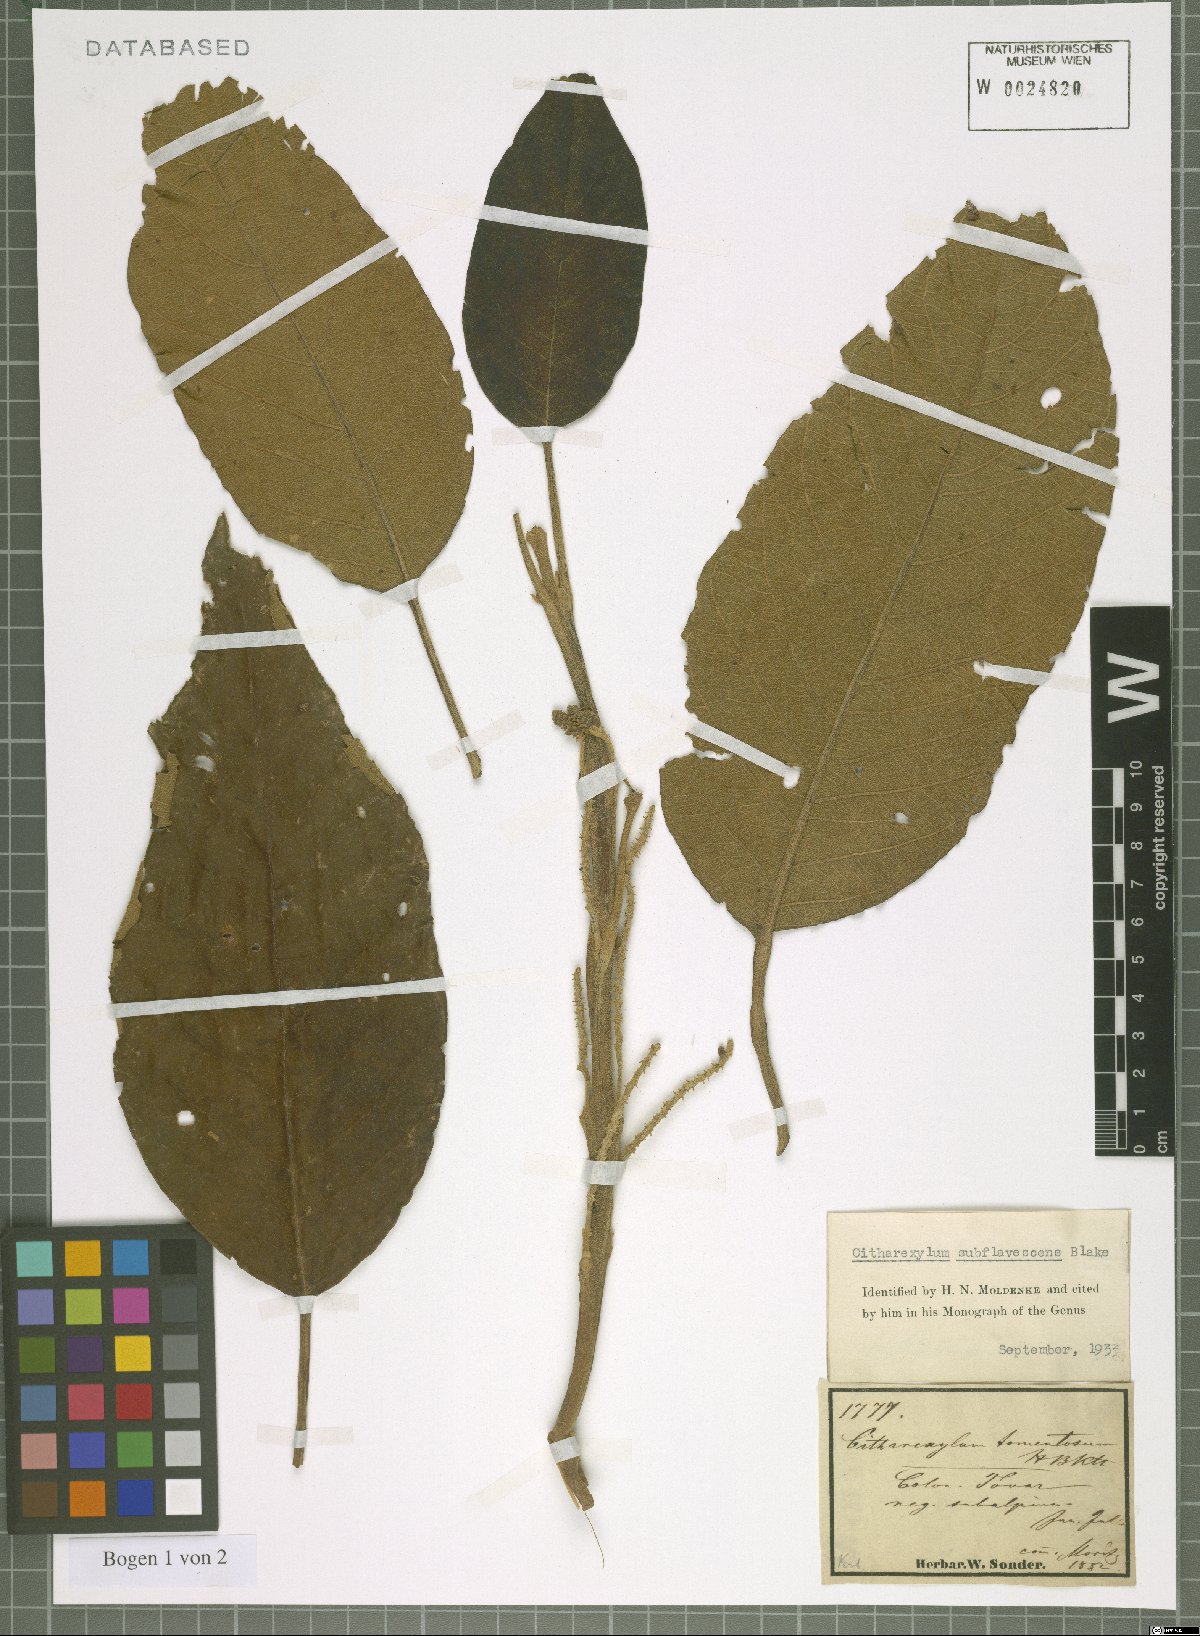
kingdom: Plantae
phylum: Tracheophyta
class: Magnoliopsida
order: Lamiales
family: Verbenaceae
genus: Citharexylum
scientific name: Citharexylum subflavescens
